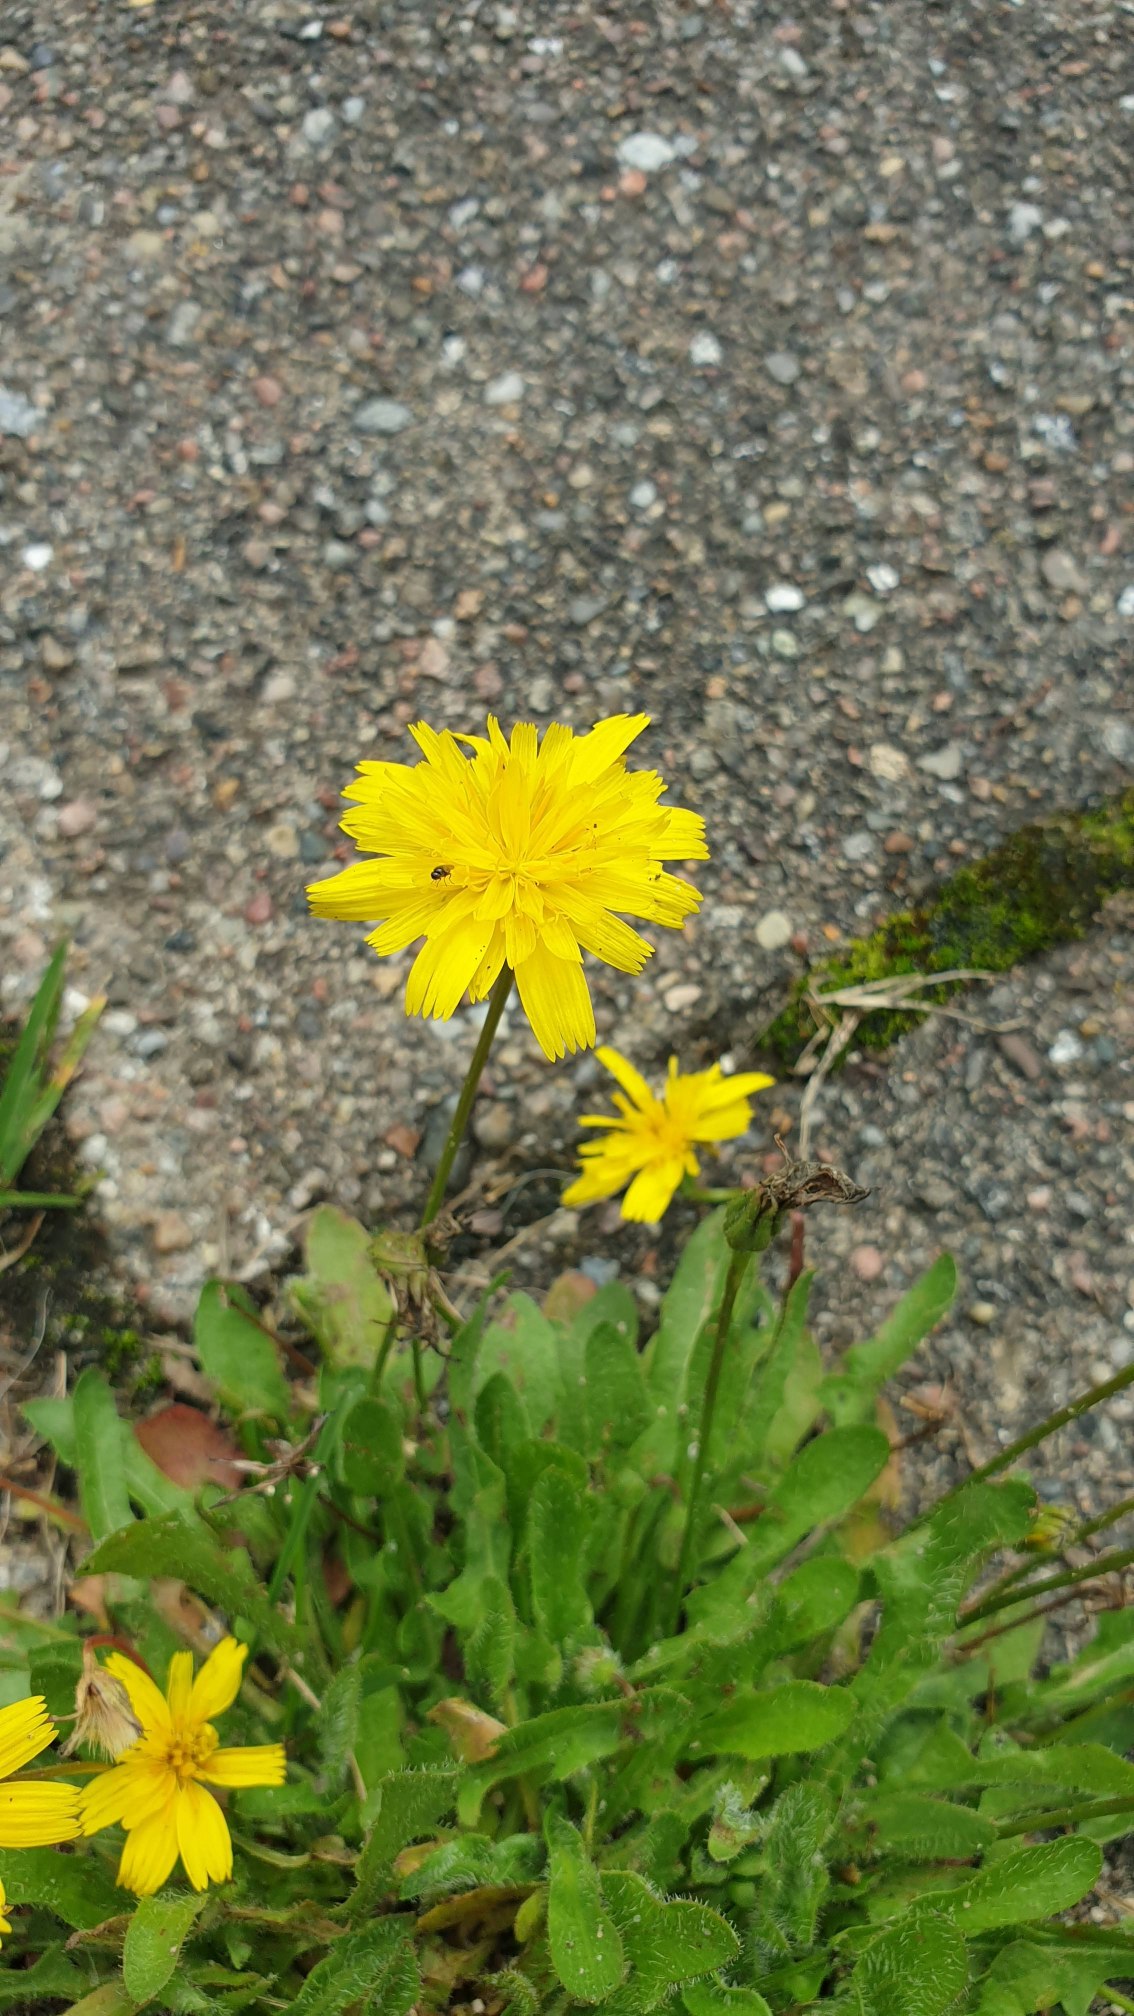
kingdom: Plantae
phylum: Tracheophyta
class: Magnoliopsida
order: Asterales
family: Asteraceae
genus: Thrincia
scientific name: Thrincia saxatilis
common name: Hundesalat
